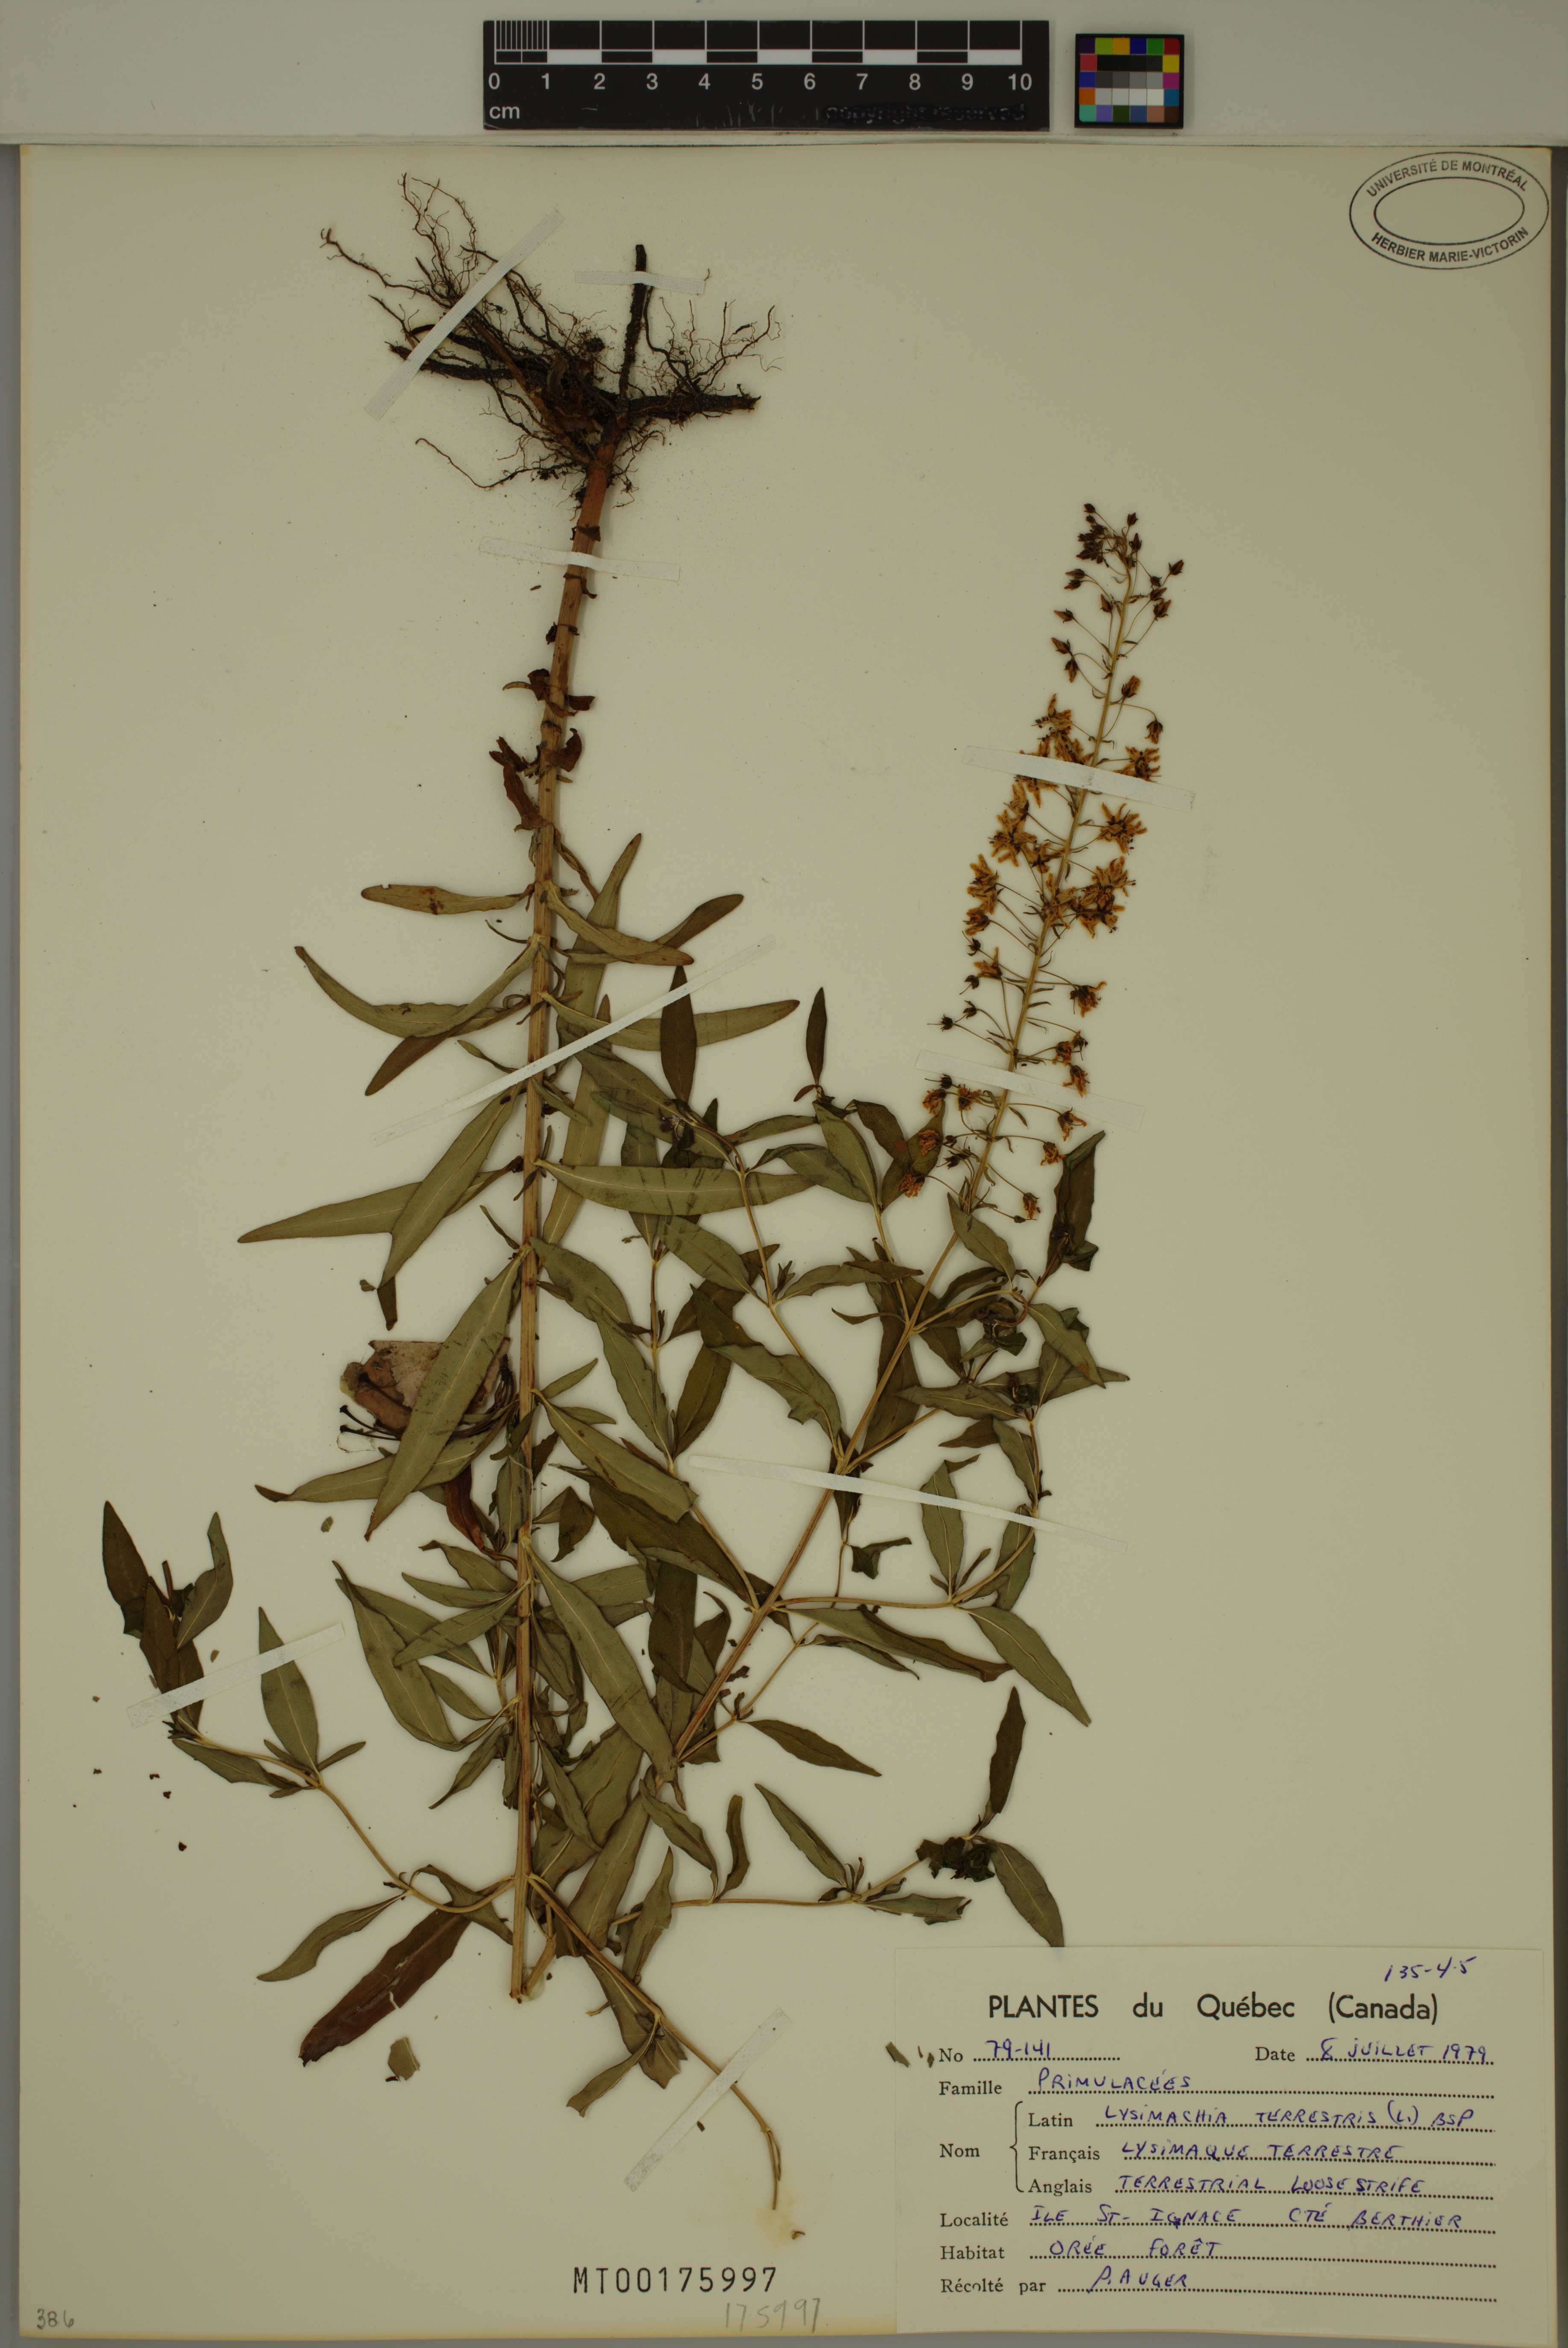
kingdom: Plantae
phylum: Tracheophyta
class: Magnoliopsida
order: Ericales
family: Primulaceae
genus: Lysimachia
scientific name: Lysimachia terrestris
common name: Lake loosestrife
